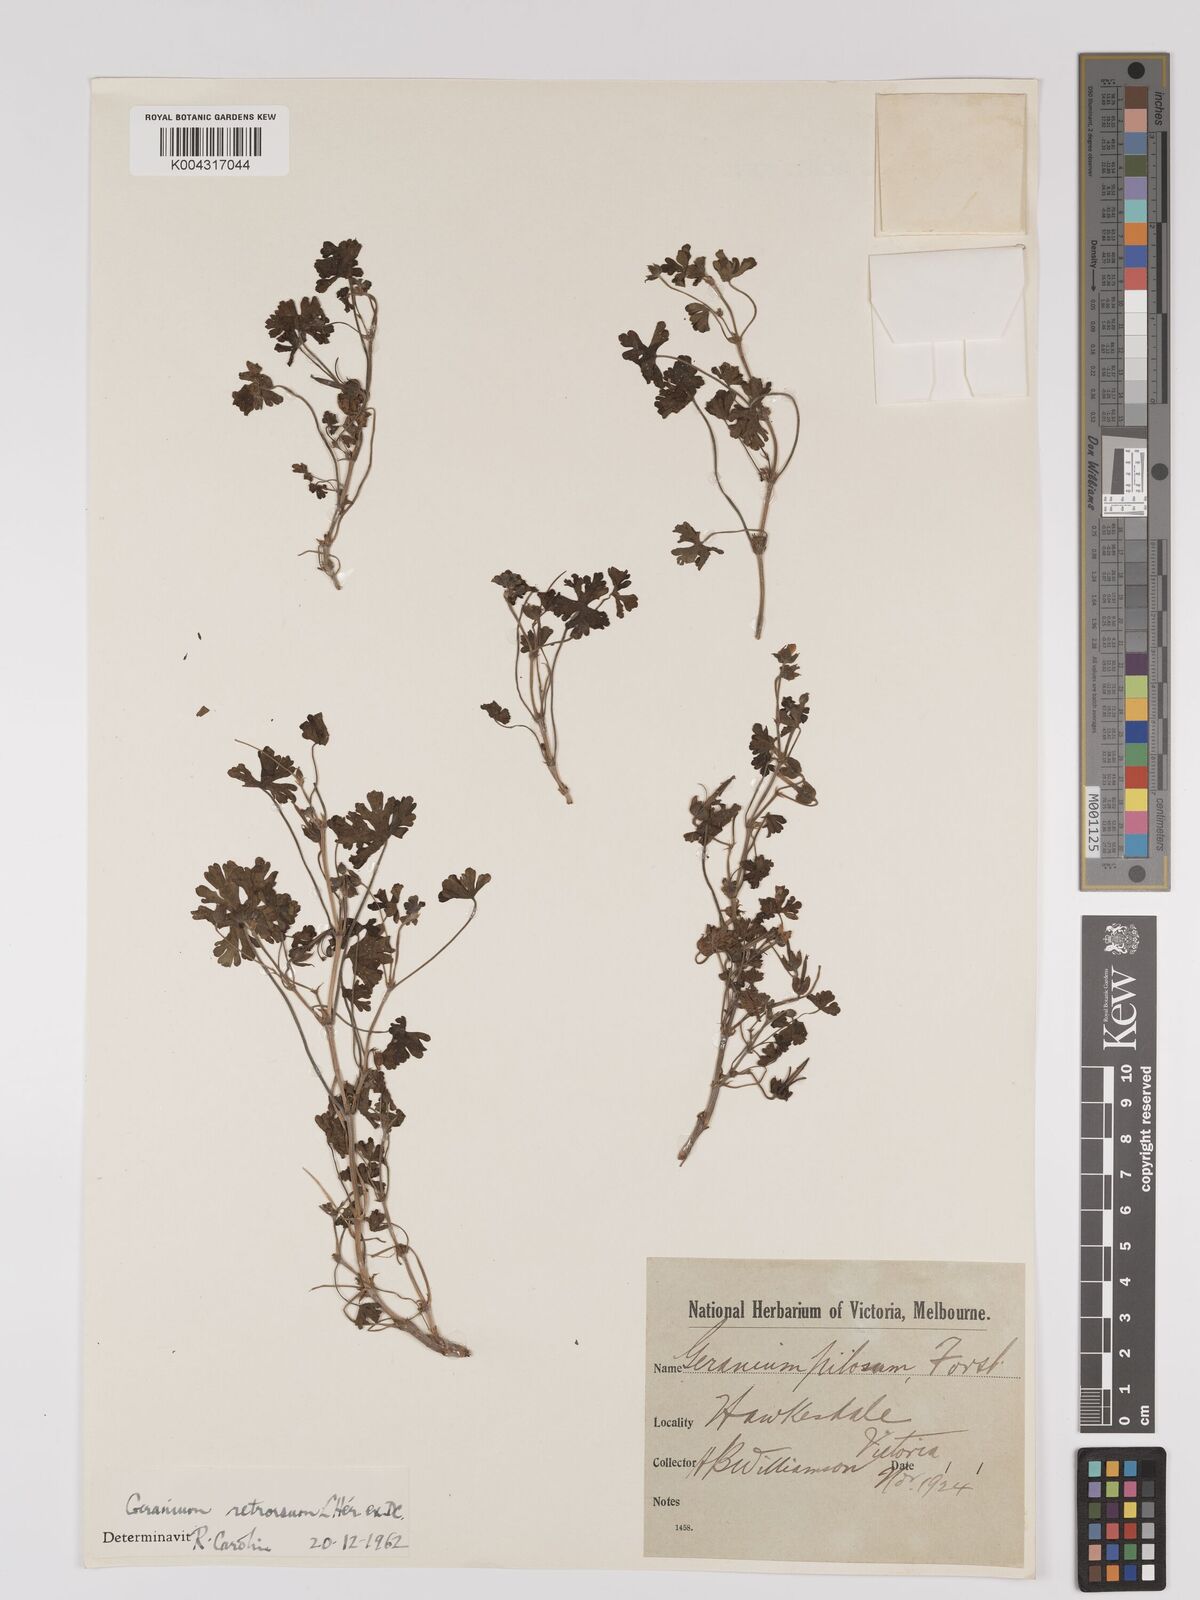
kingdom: Plantae
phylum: Tracheophyta
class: Magnoliopsida
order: Geraniales
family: Geraniaceae
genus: Geranium
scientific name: Geranium retrorsum
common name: New zealand geranium
